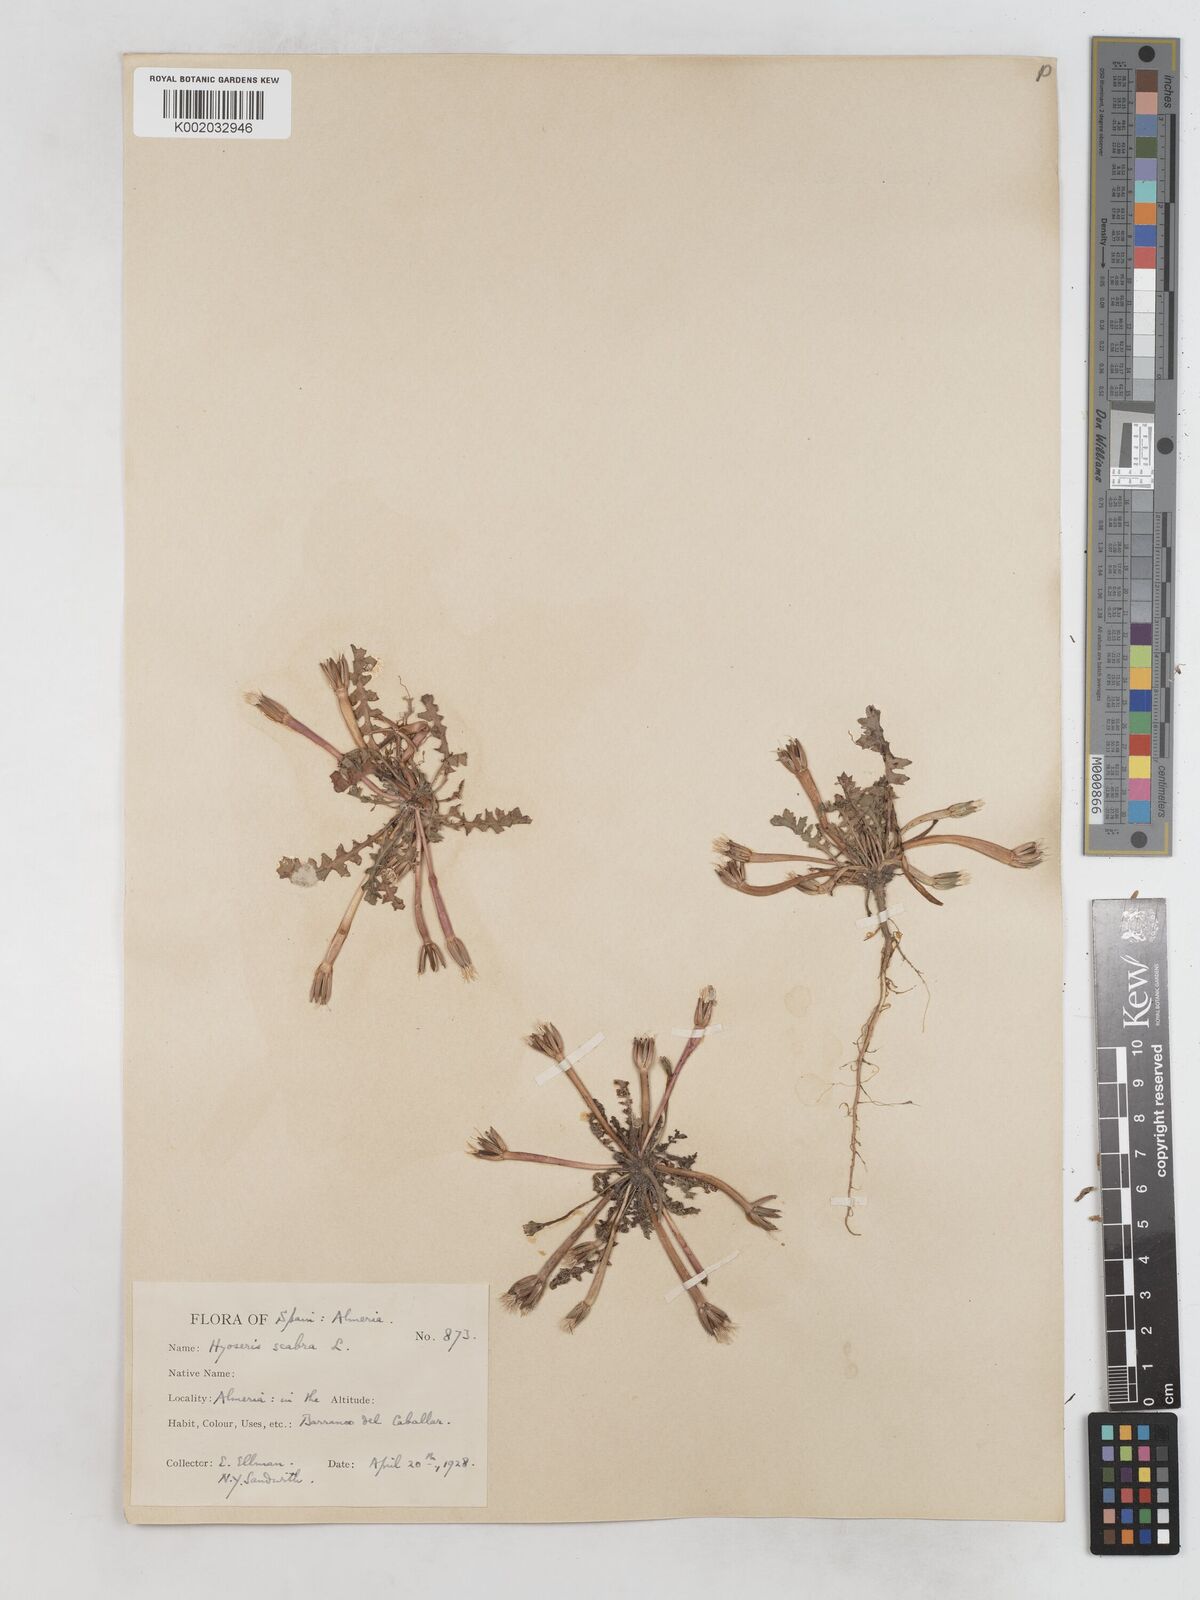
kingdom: Plantae
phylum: Tracheophyta
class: Magnoliopsida
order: Asterales
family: Asteraceae
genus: Hyoseris
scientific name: Hyoseris scabra
